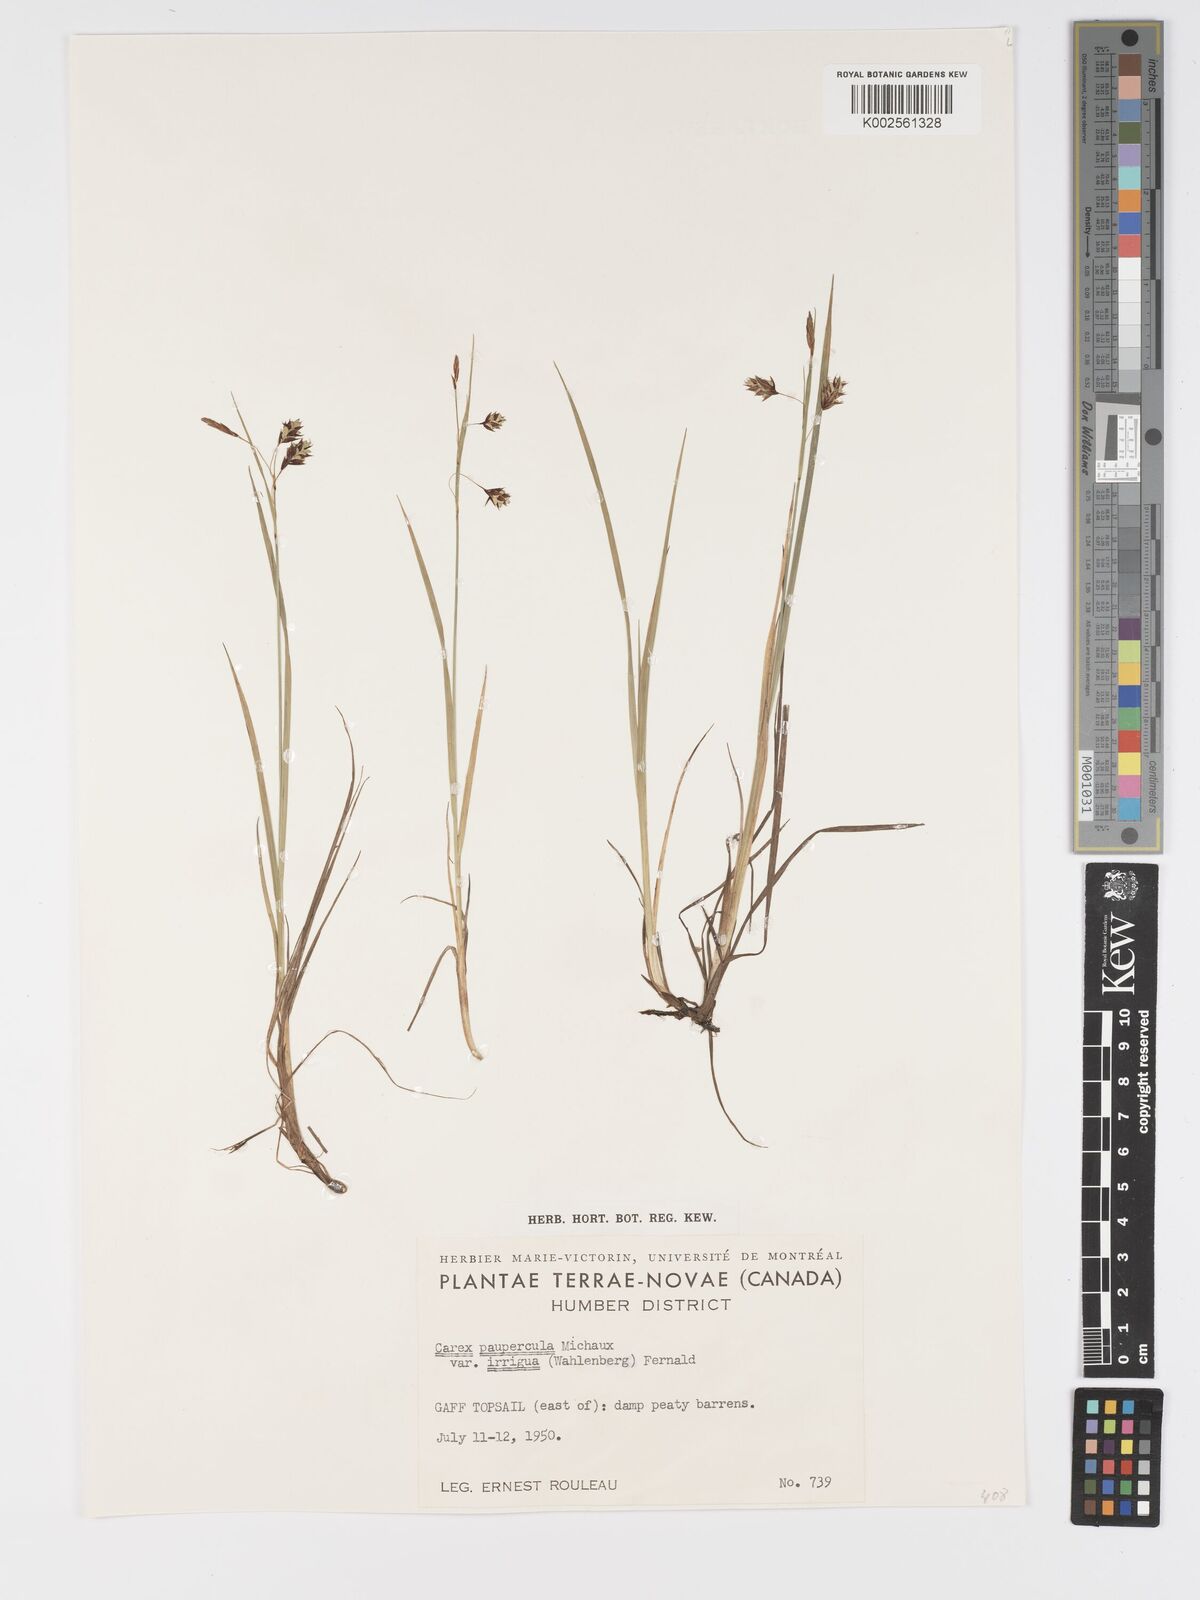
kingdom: Plantae
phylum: Tracheophyta
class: Liliopsida
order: Poales
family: Cyperaceae
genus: Carex
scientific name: Carex magellanica
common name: Bog sedge
